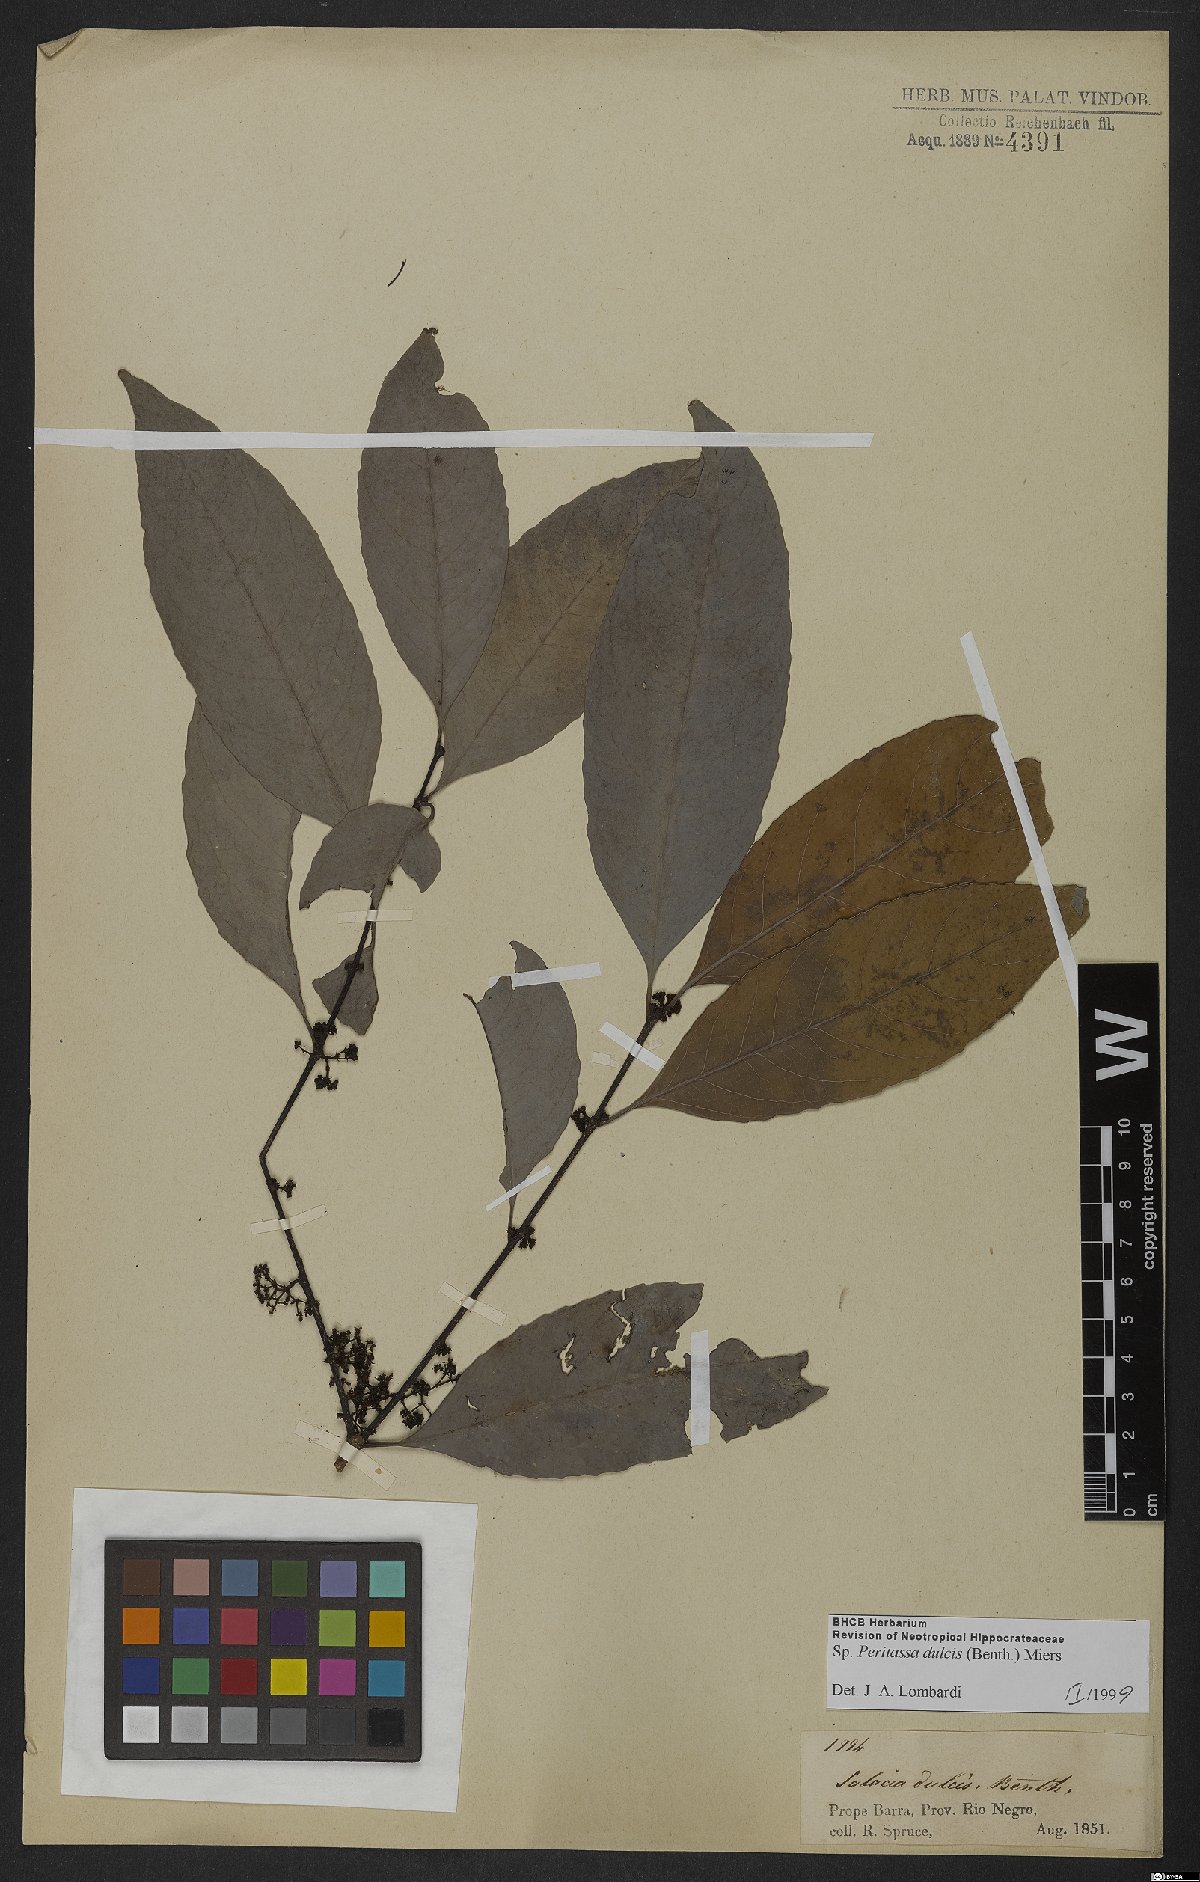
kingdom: Plantae
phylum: Tracheophyta
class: Magnoliopsida
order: Celastrales
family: Celastraceae
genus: Peritassa
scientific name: Peritassa dulcis
